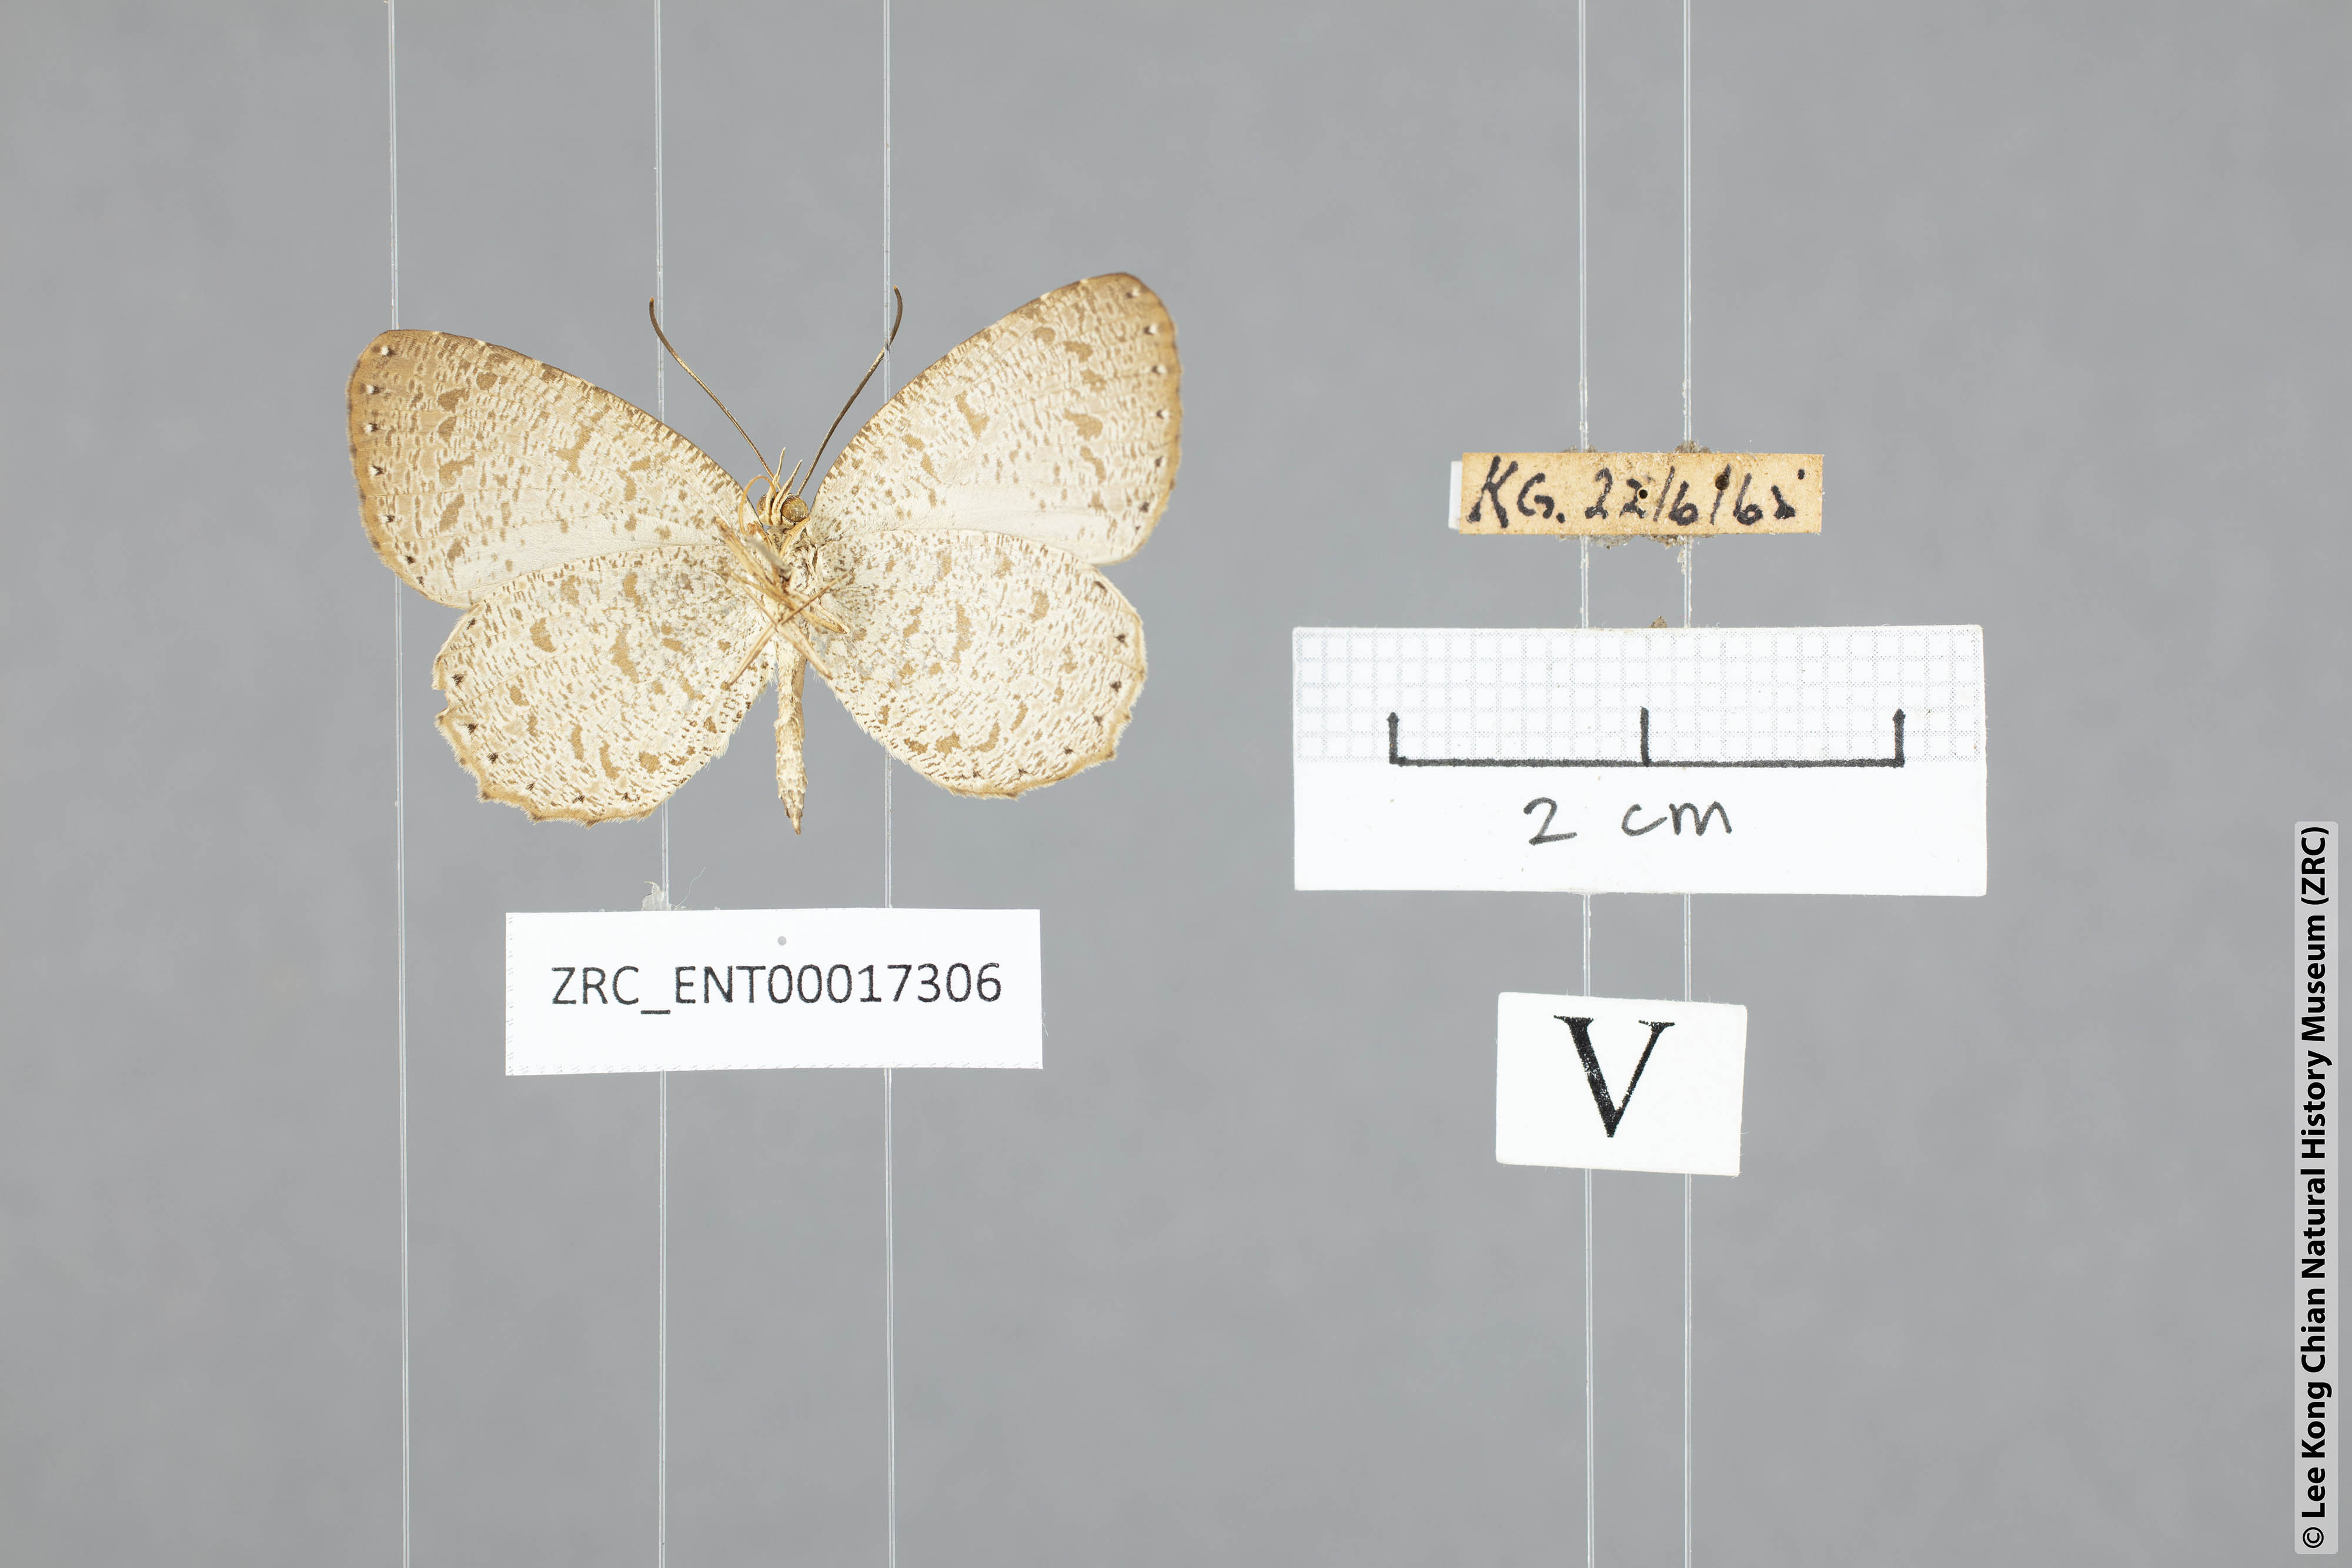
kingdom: Animalia
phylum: Arthropoda
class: Insecta
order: Lepidoptera
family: Lycaenidae
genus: Allotinus
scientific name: Allotinus strigatus
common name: Small malayan darkie
